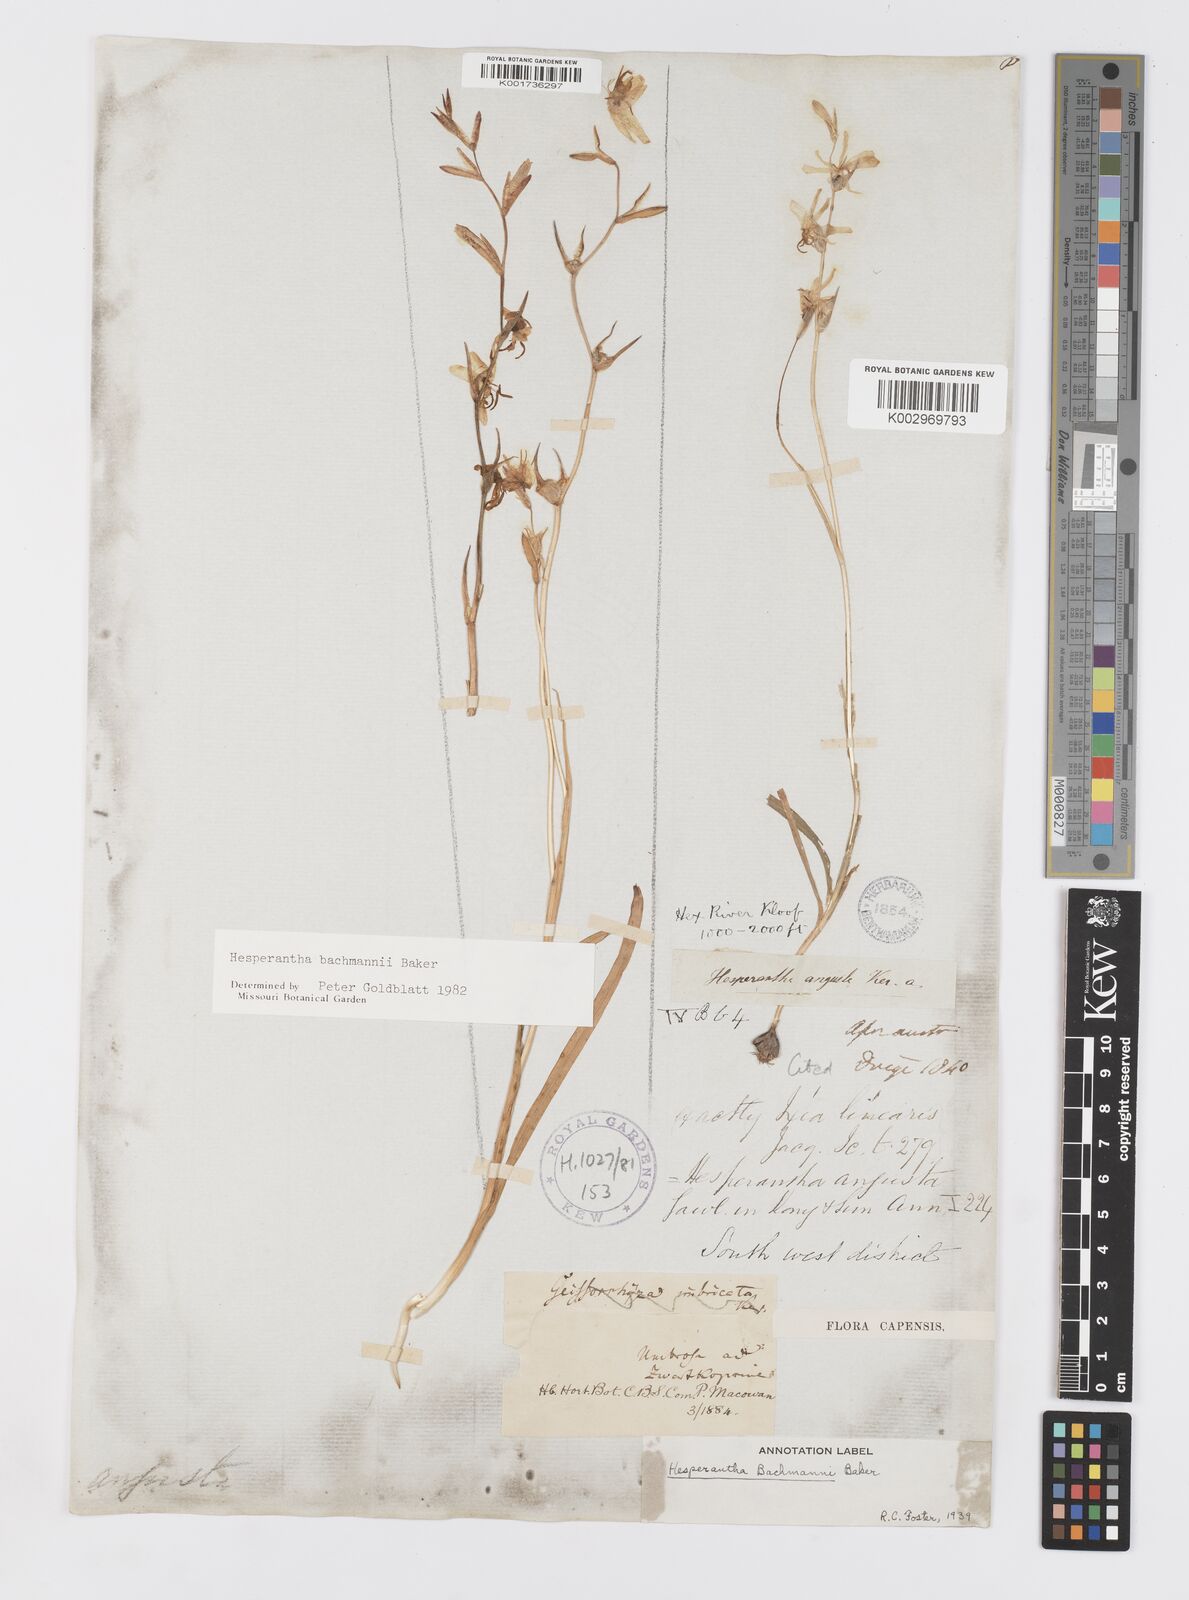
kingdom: Plantae
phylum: Tracheophyta
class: Liliopsida
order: Asparagales
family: Iridaceae
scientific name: Iridaceae
